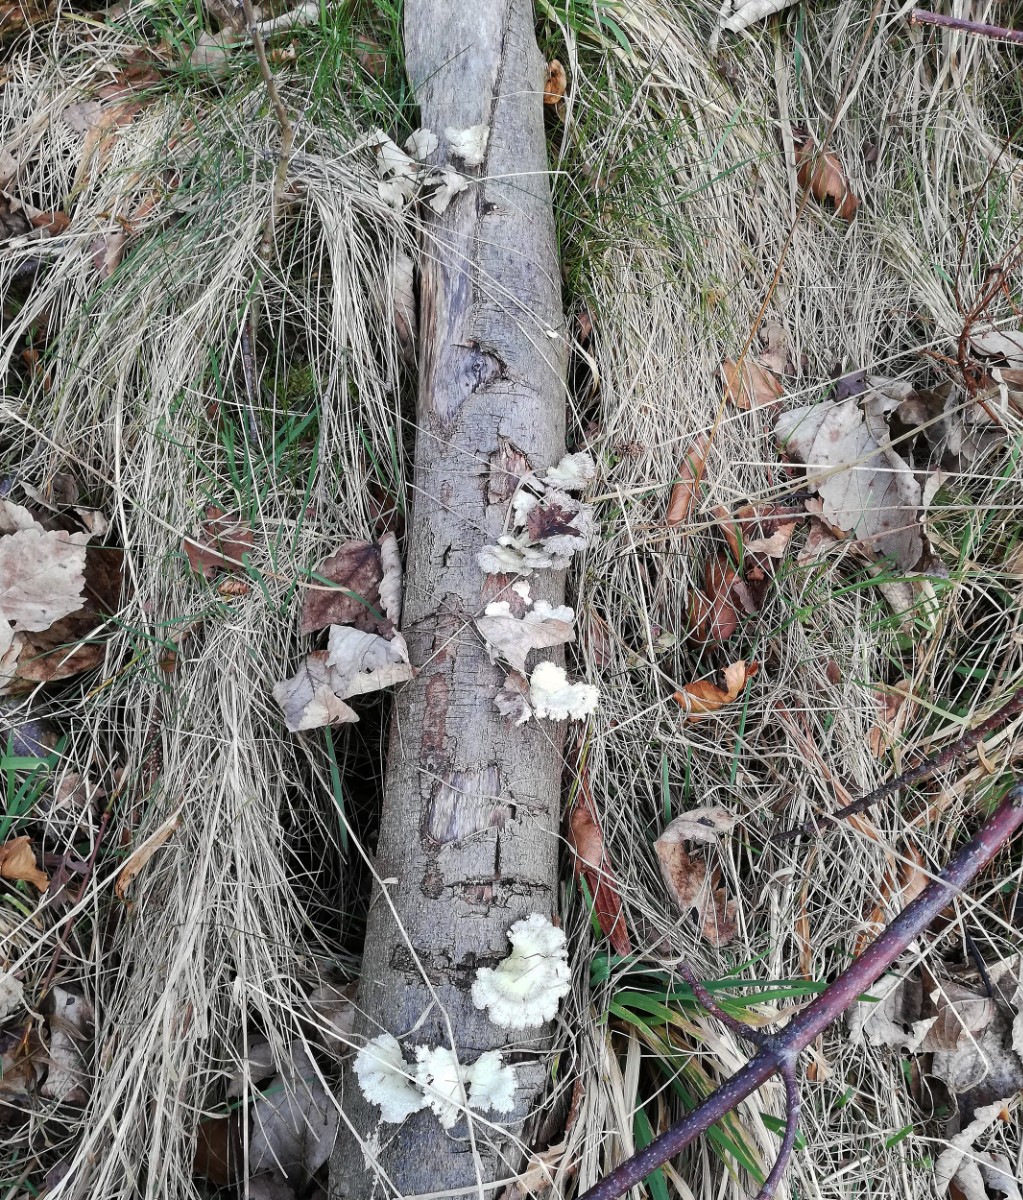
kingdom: Fungi
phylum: Basidiomycota
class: Agaricomycetes
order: Agaricales
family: Schizophyllaceae
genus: Schizophyllum
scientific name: Schizophyllum commune
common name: kløvblad
